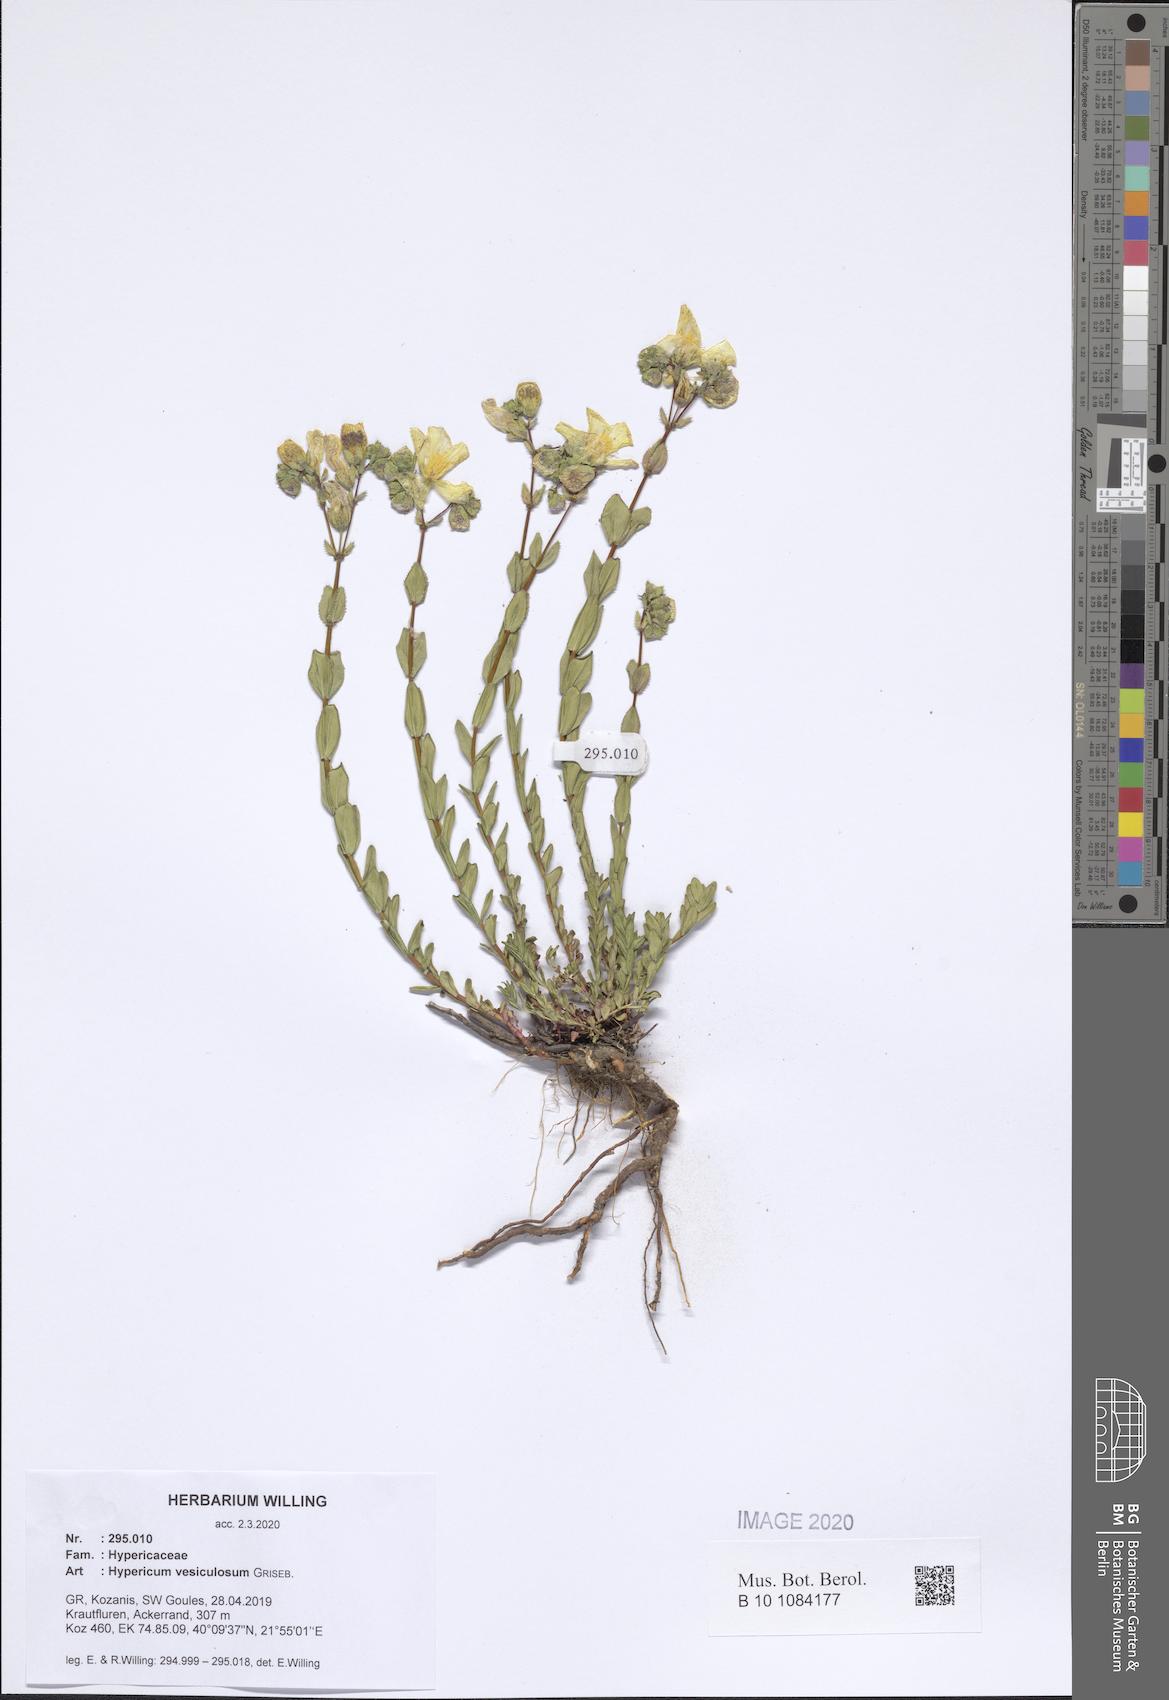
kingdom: Plantae
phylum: Tracheophyta
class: Magnoliopsida
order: Malpighiales
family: Hypericaceae
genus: Hypericum
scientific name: Hypericum vesiculosum
